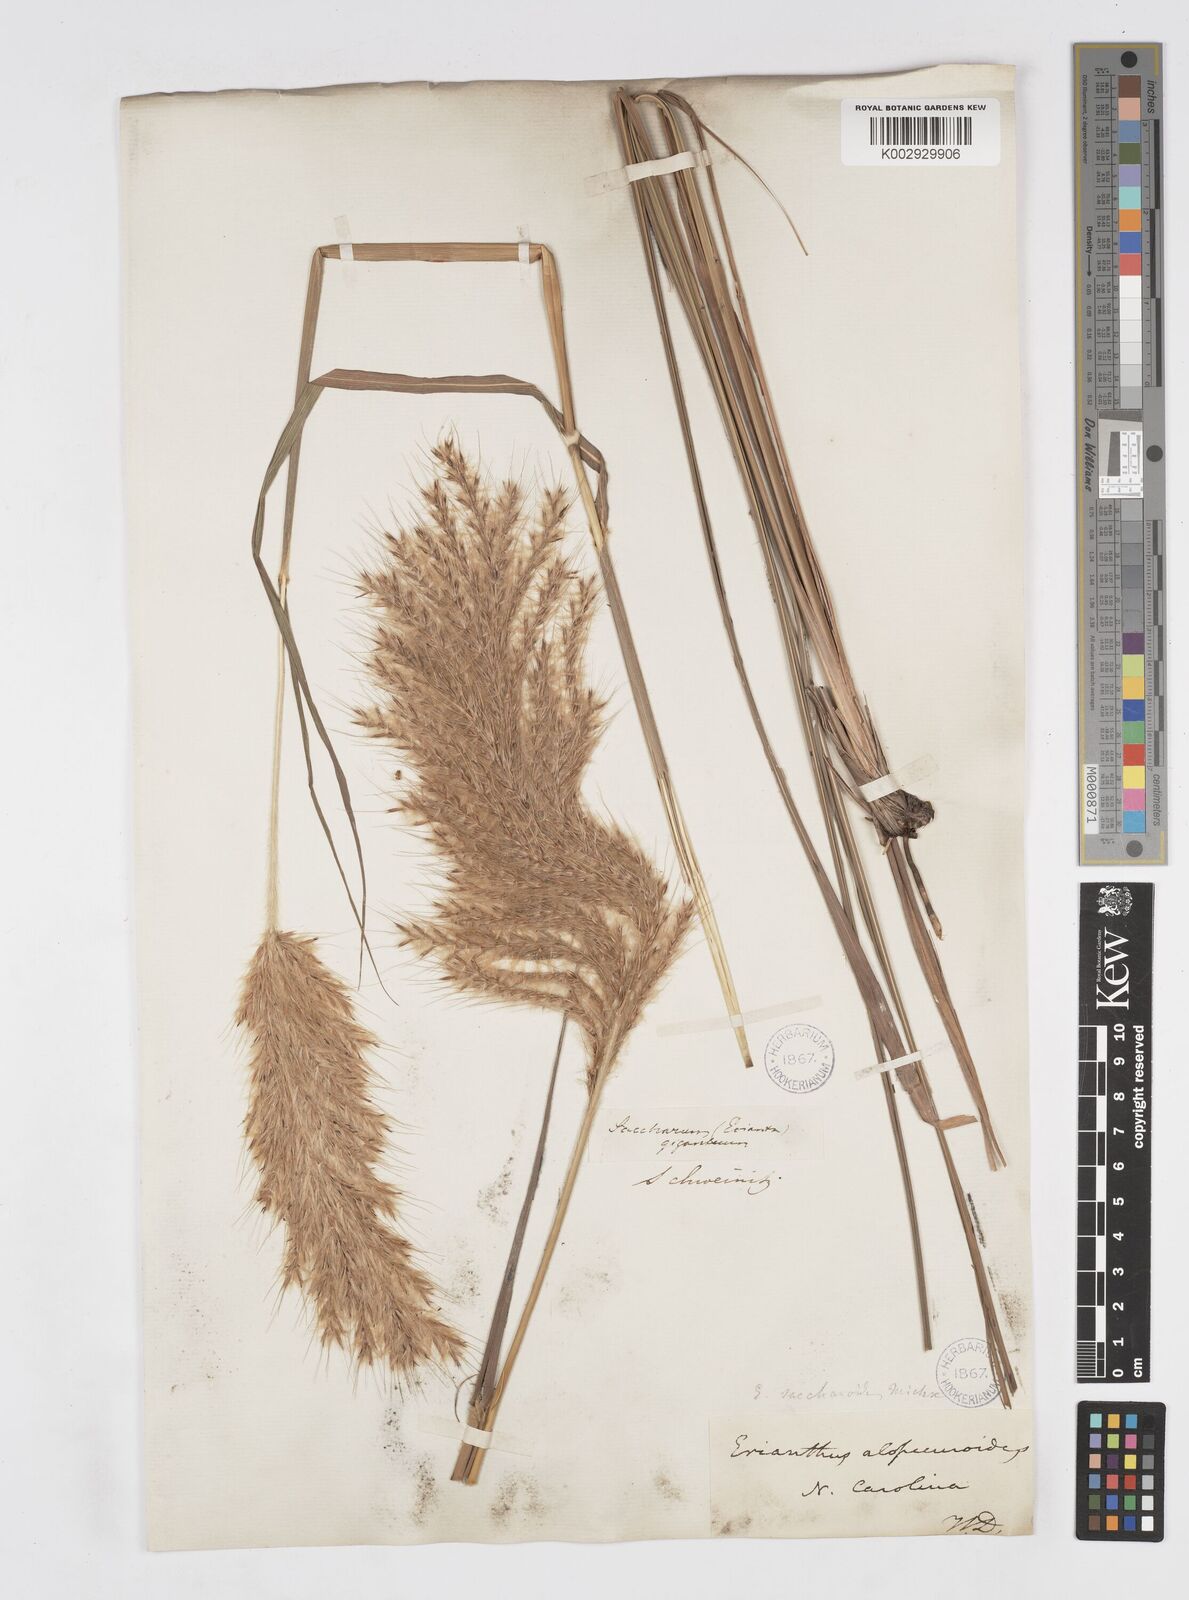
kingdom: Plantae
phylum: Tracheophyta
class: Liliopsida
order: Poales
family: Poaceae
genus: Saccharum
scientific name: Saccharum
